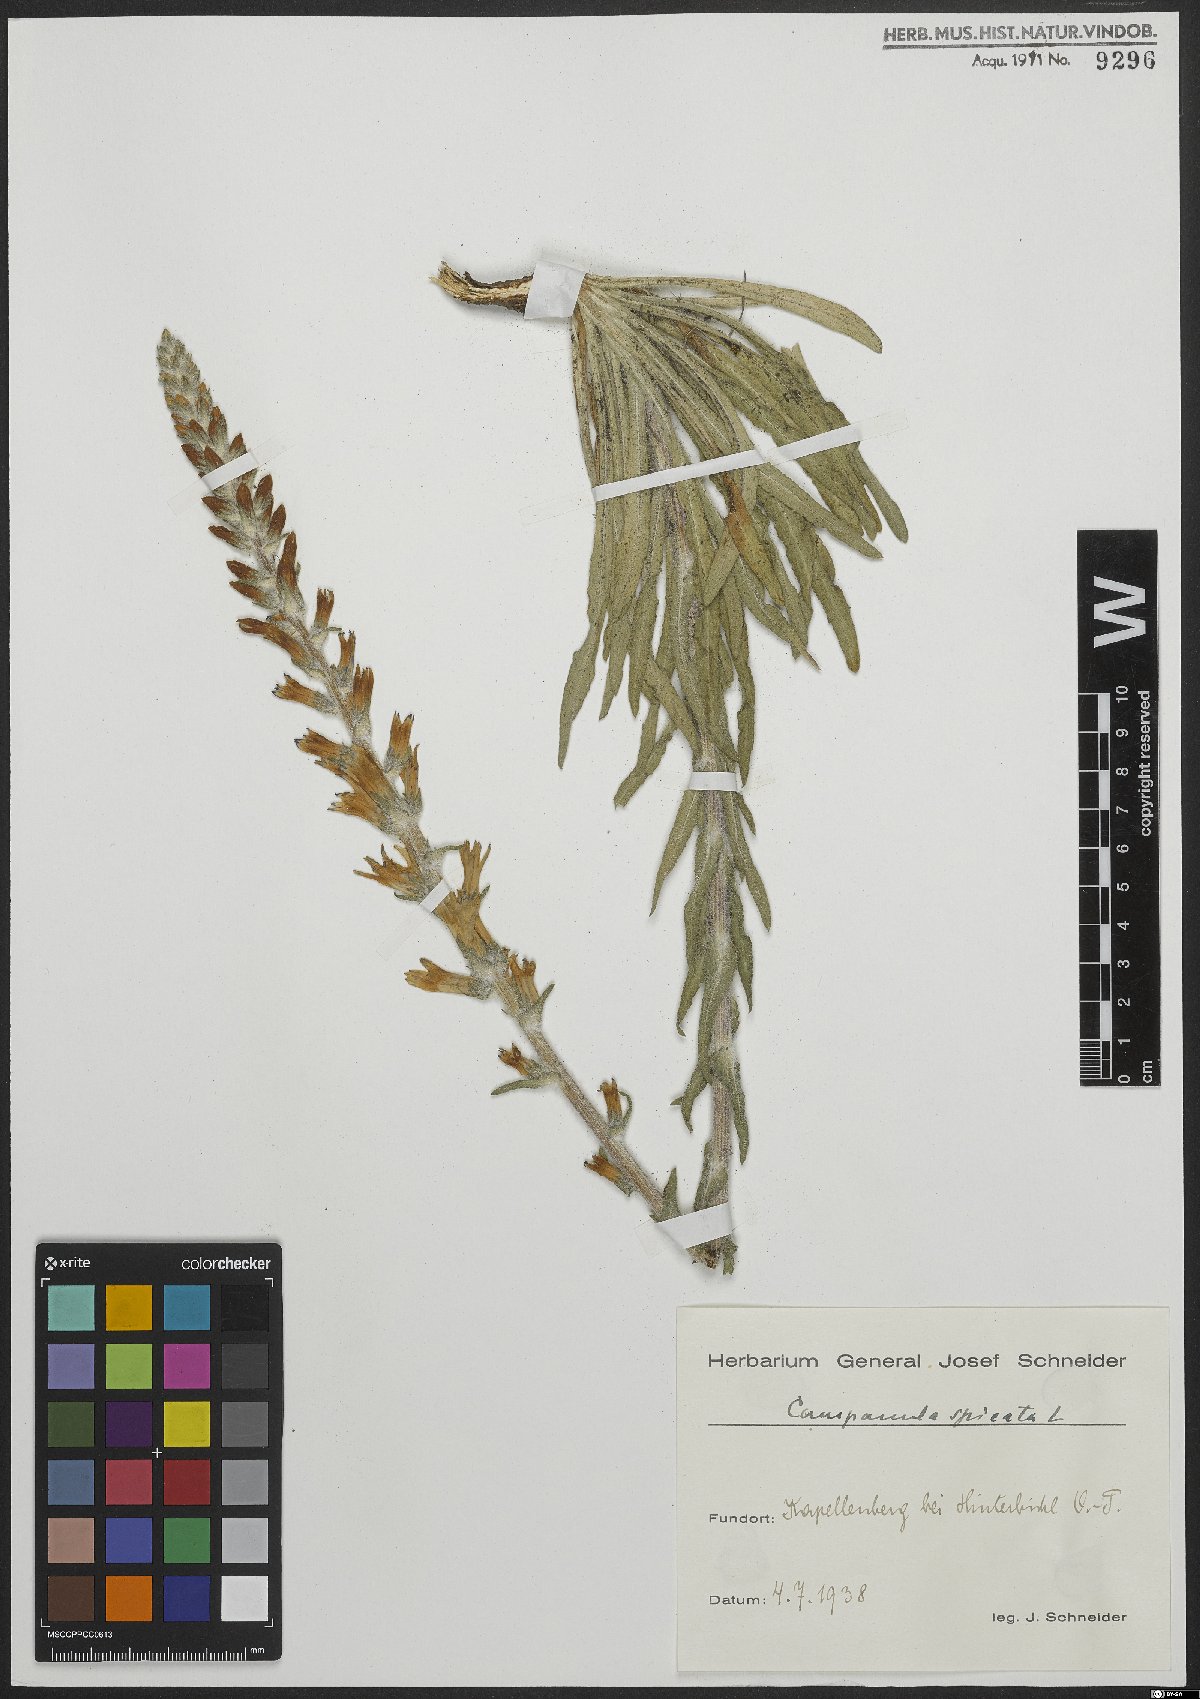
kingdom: Plantae
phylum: Tracheophyta
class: Magnoliopsida
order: Asterales
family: Campanulaceae
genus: Campanula
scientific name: Campanula spicata
